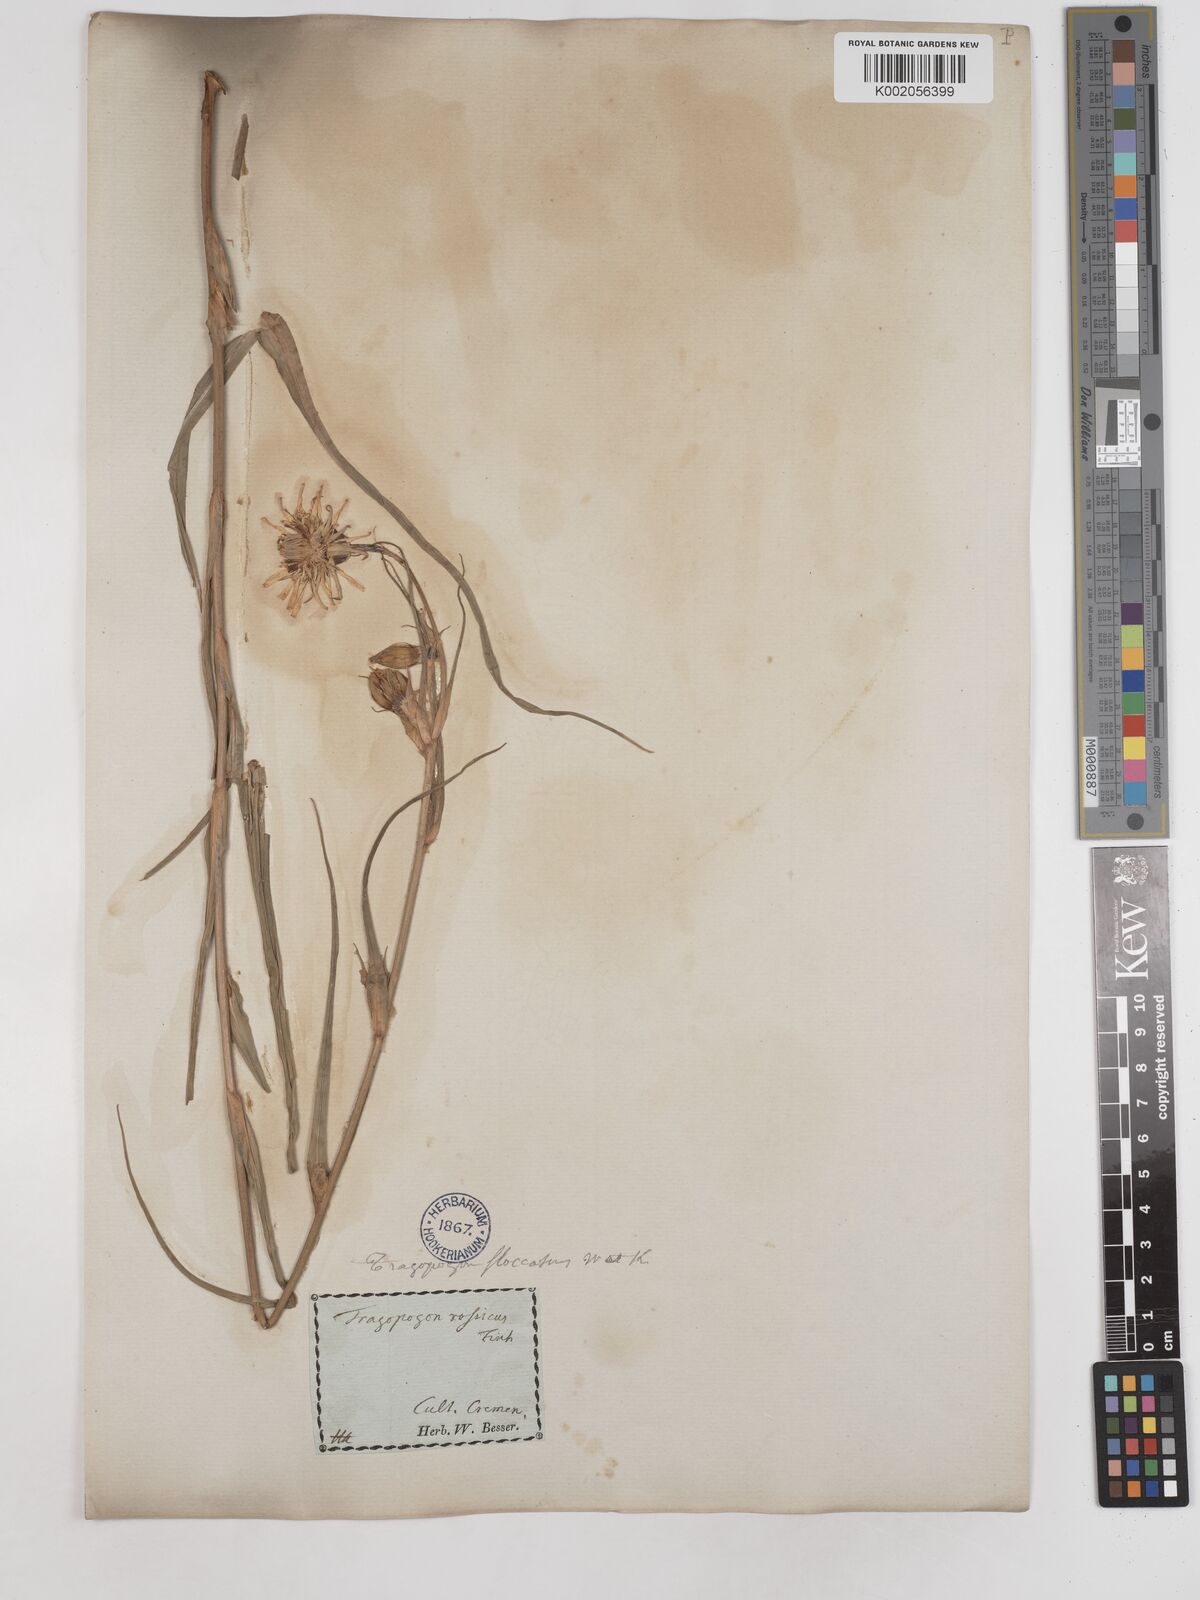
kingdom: Plantae
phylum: Tracheophyta
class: Magnoliopsida
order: Asterales
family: Asteraceae
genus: Tragopogon
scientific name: Tragopogon floccosus
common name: Woolly goatsbeard
